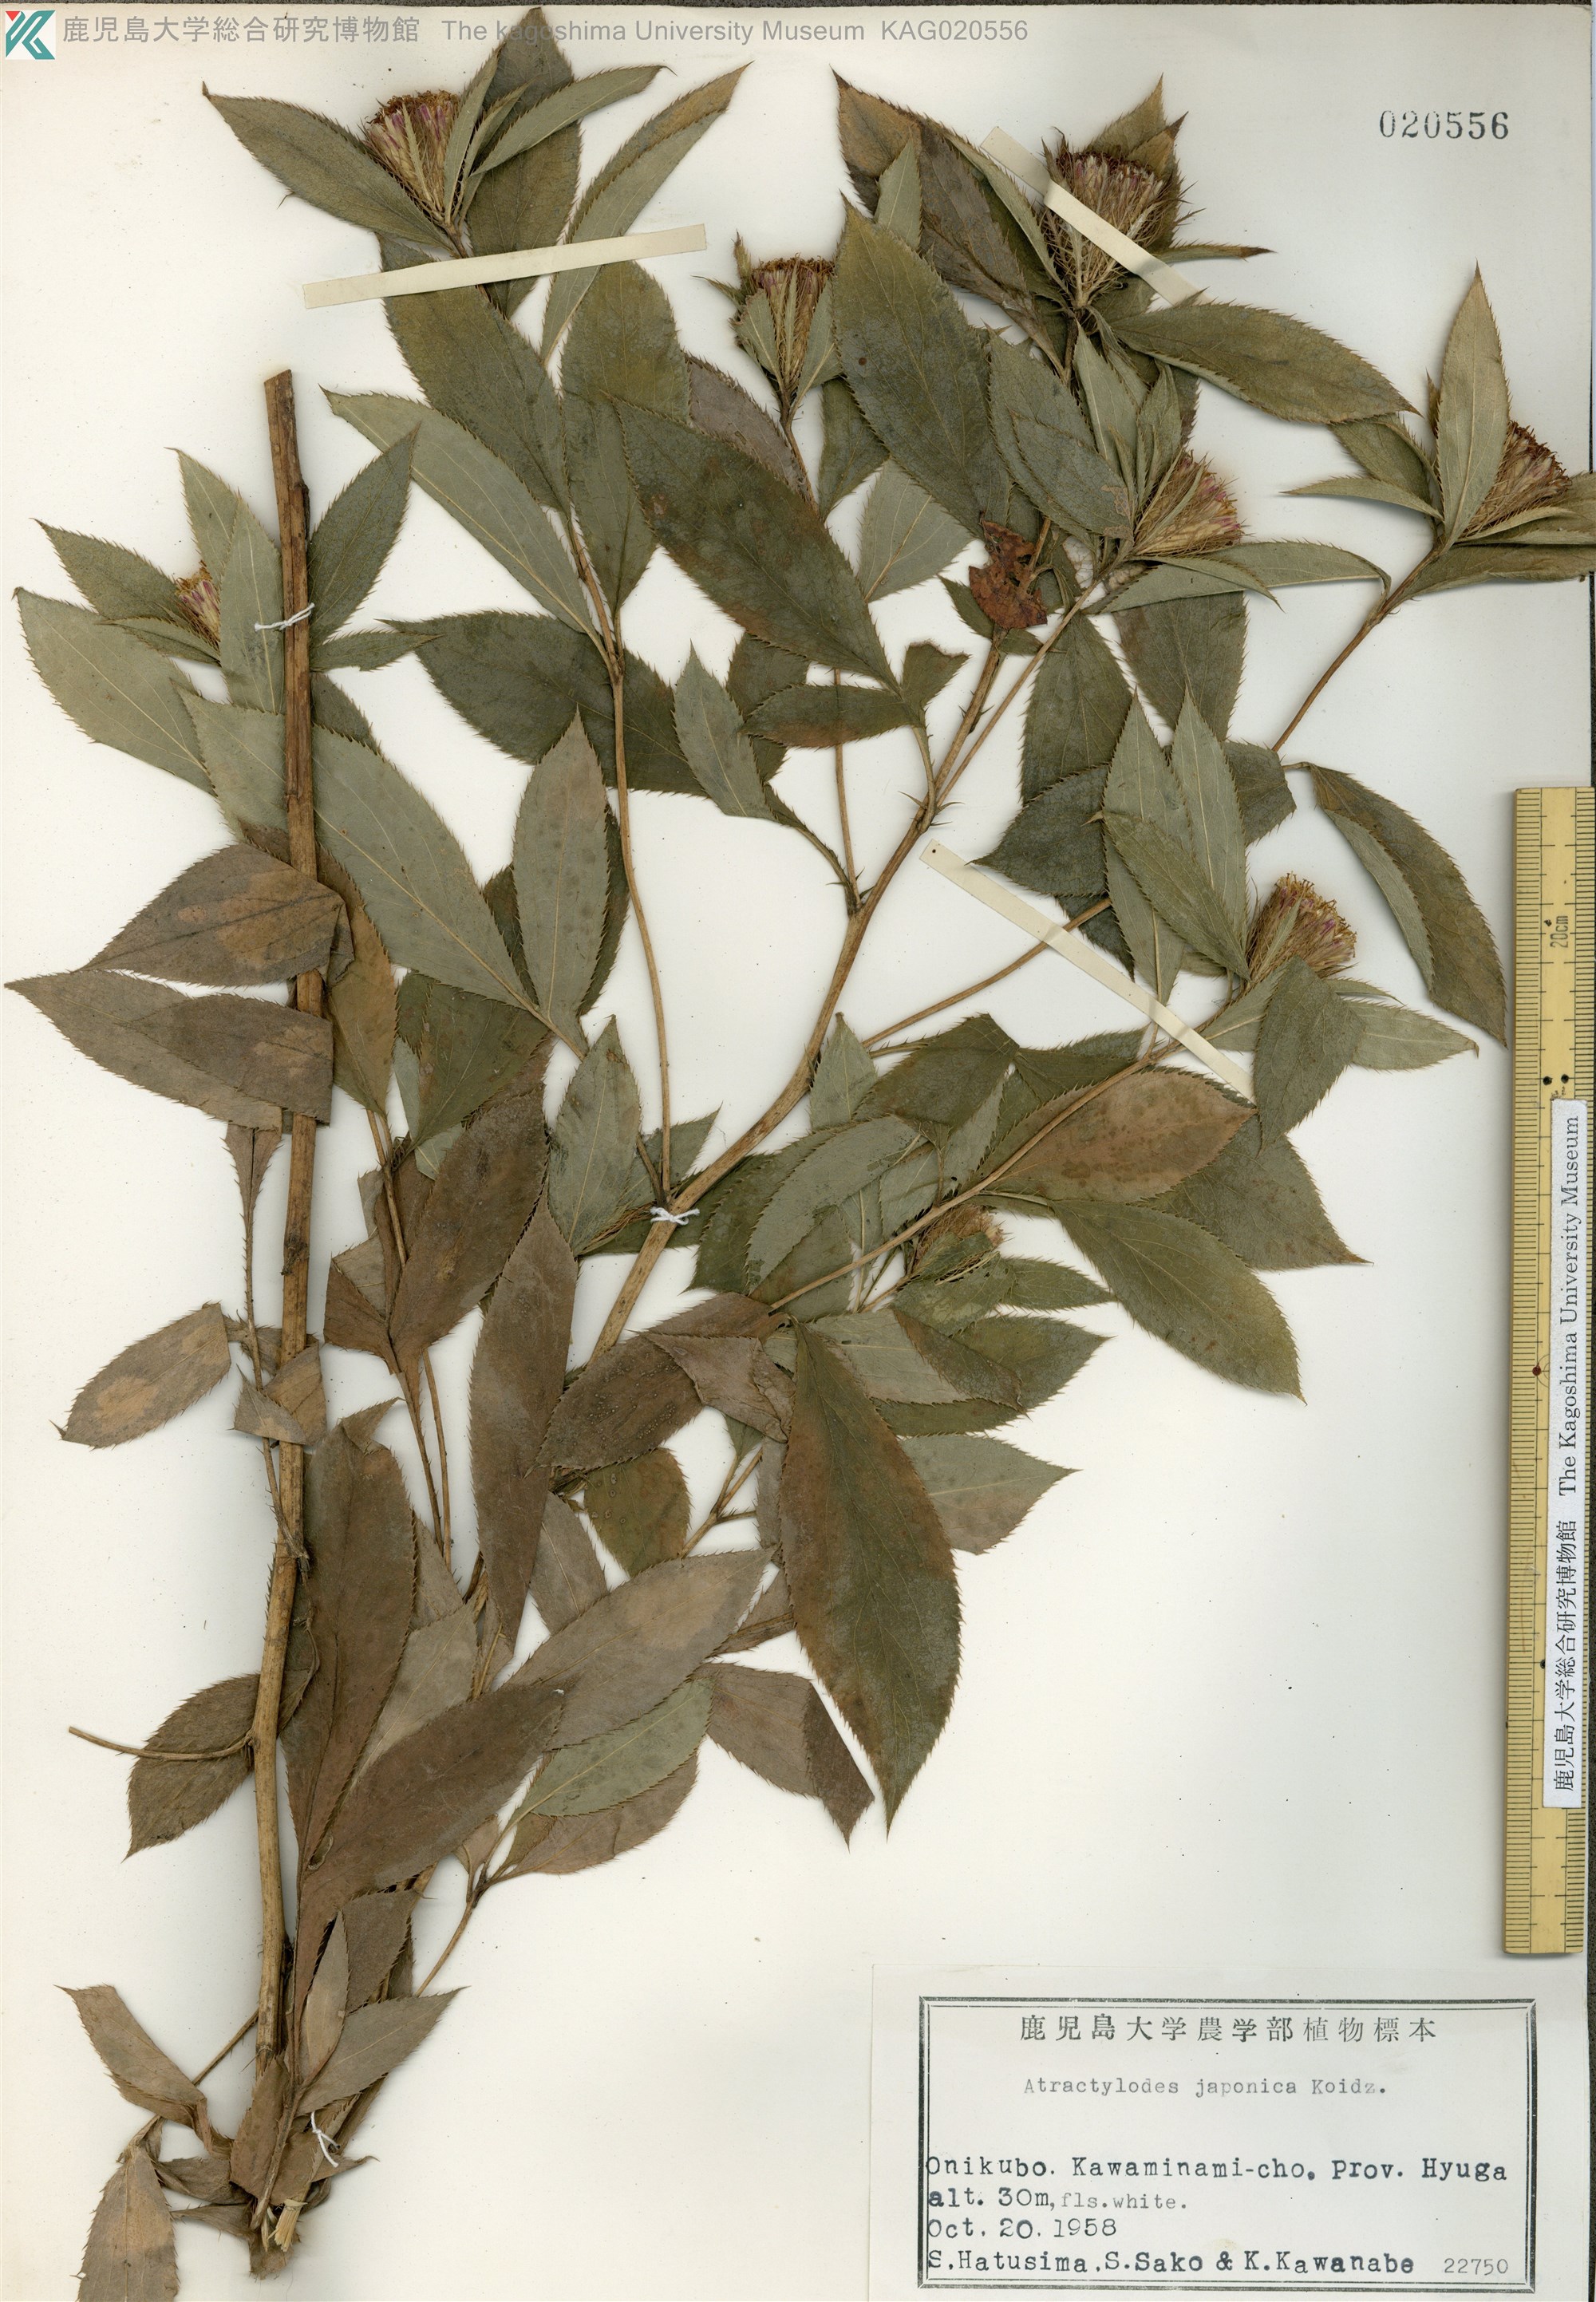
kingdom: Plantae
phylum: Tracheophyta
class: Magnoliopsida
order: Asterales
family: Asteraceae
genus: Atractylodes
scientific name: Atractylodes lancea
